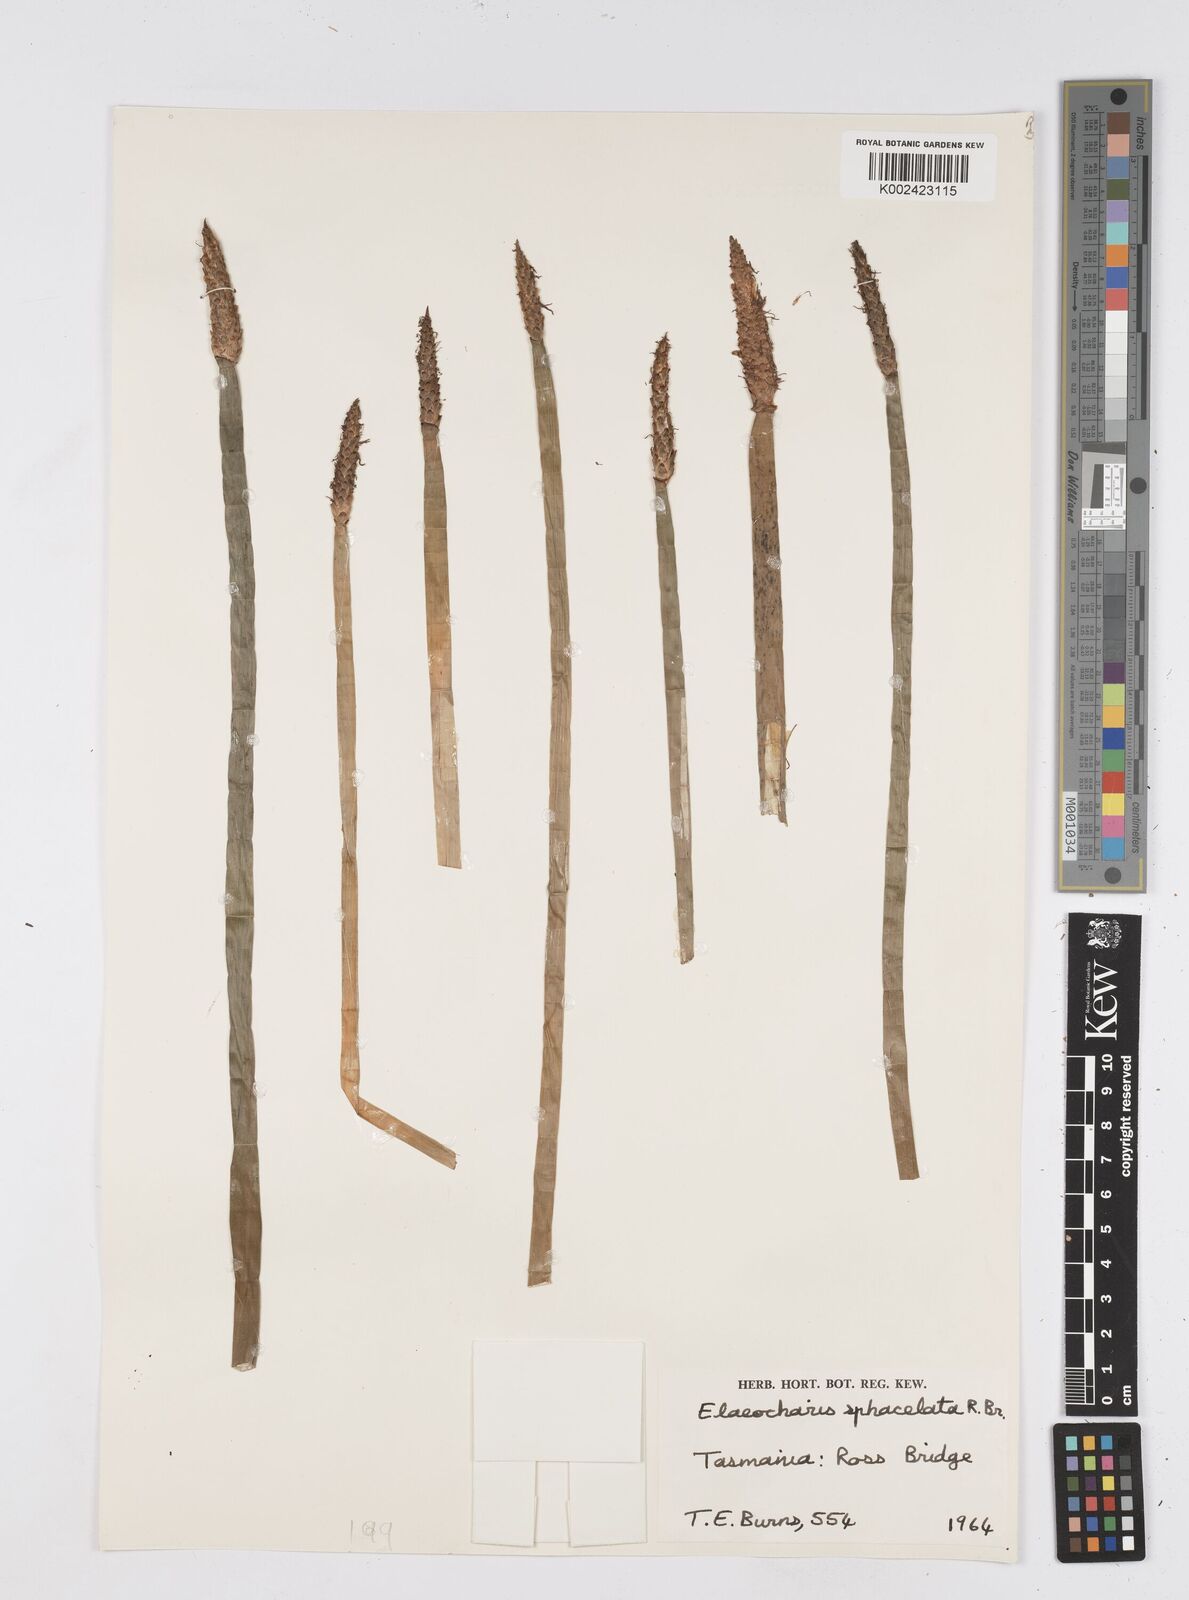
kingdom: Plantae
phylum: Tracheophyta
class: Liliopsida
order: Poales
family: Cyperaceae
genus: Eleocharis
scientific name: Eleocharis sphacelata
